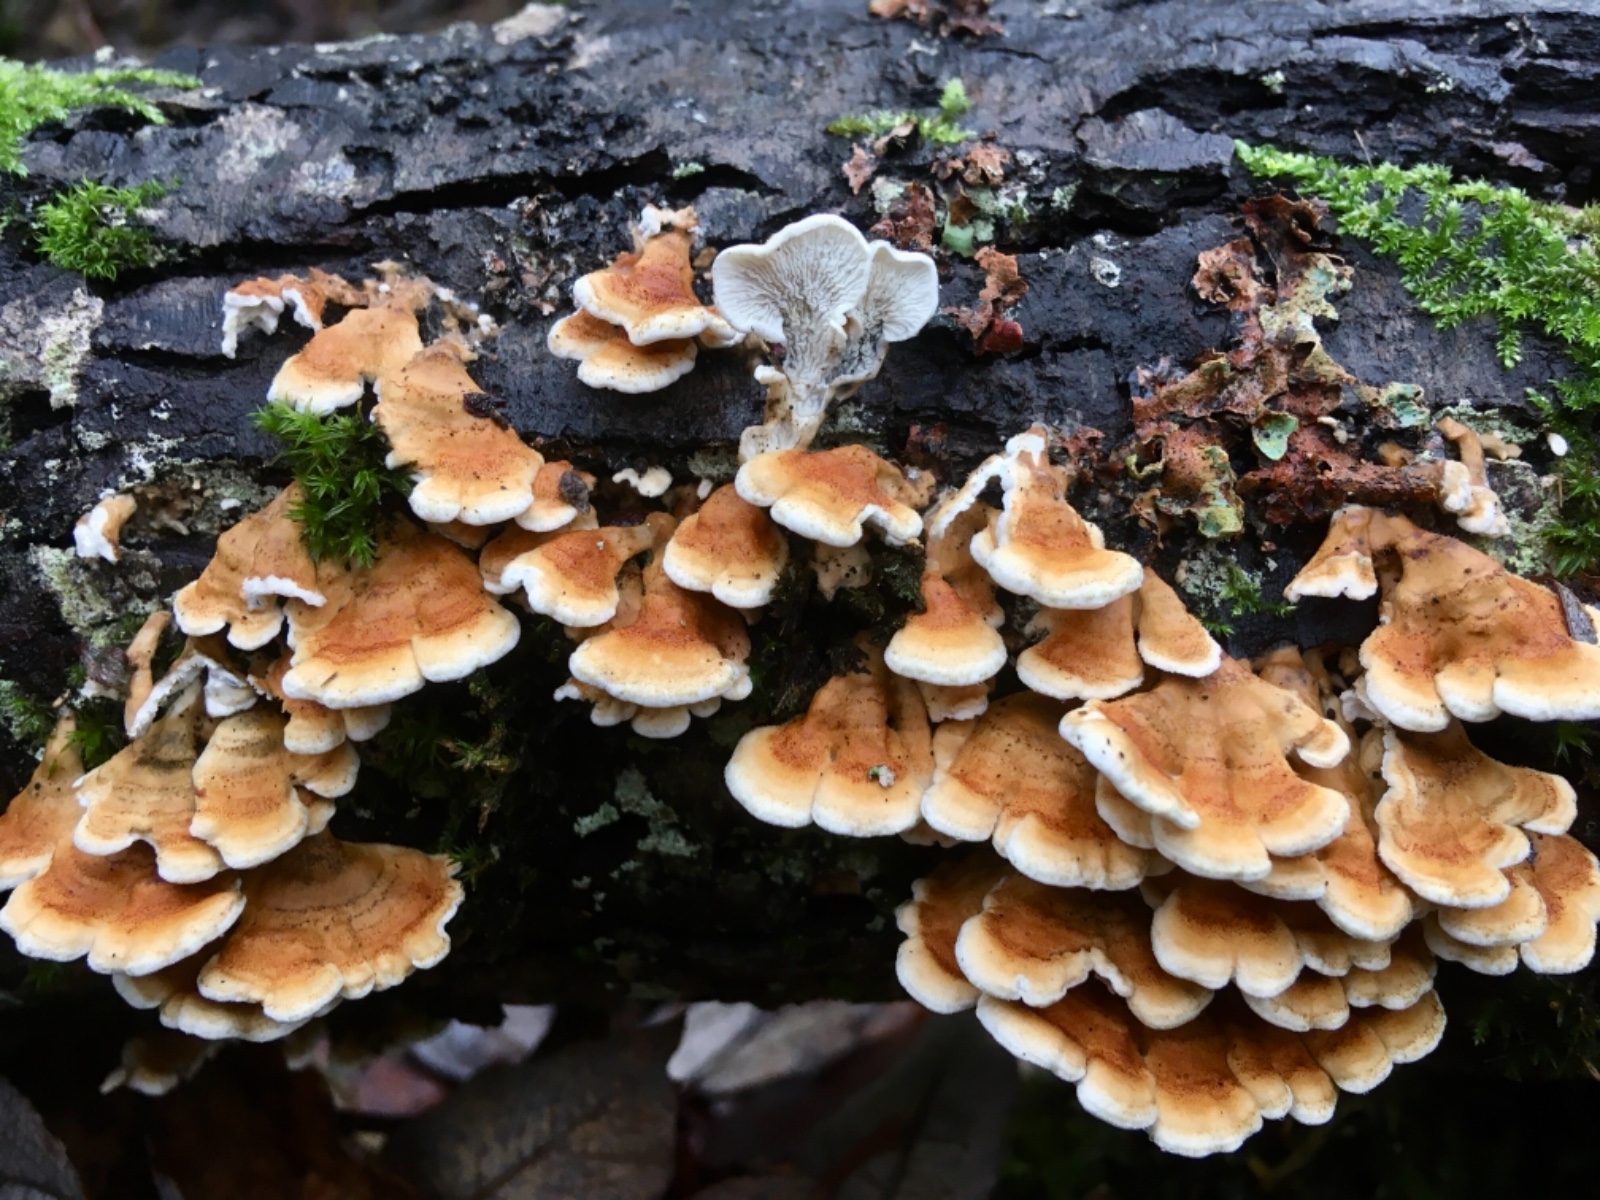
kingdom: Fungi
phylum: Basidiomycota
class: Agaricomycetes
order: Amylocorticiales
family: Amylocorticiaceae
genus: Plicaturopsis
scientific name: Plicaturopsis crispa
